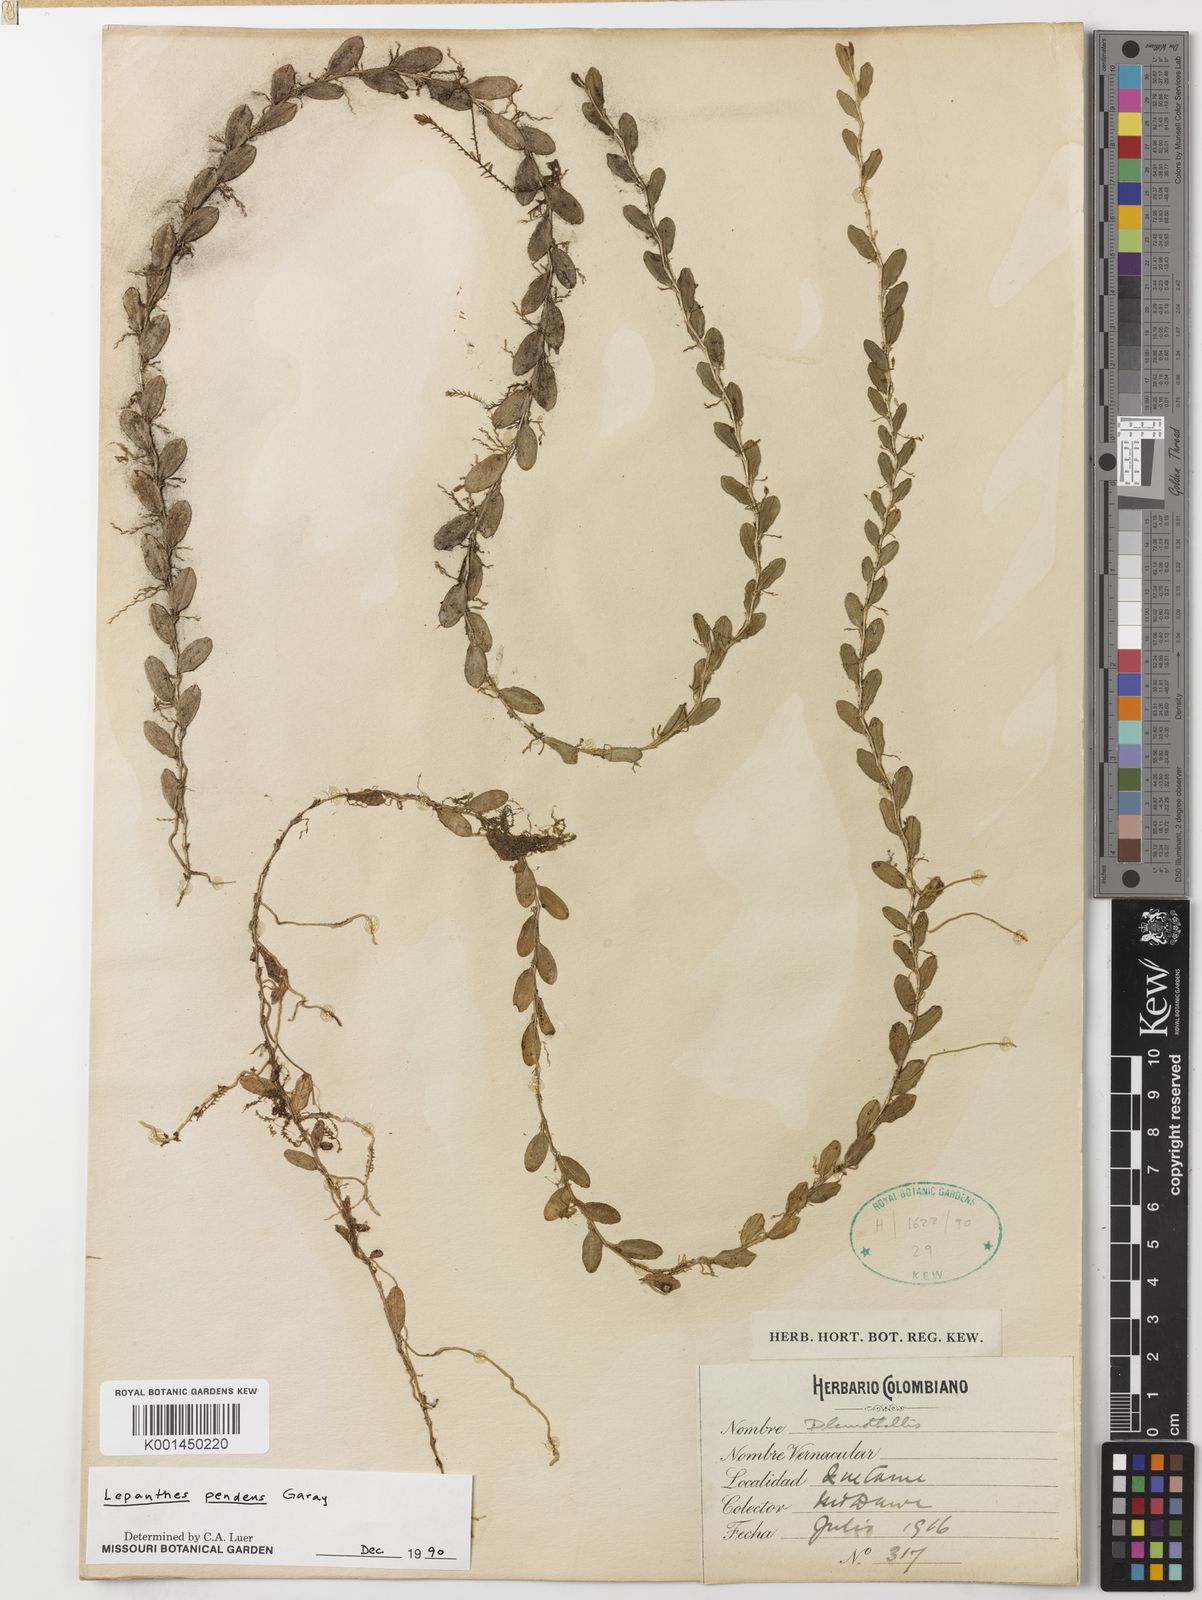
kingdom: Plantae
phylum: Tracheophyta
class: Liliopsida
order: Asparagales
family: Orchidaceae
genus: Andinia
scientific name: Andinia pendens
